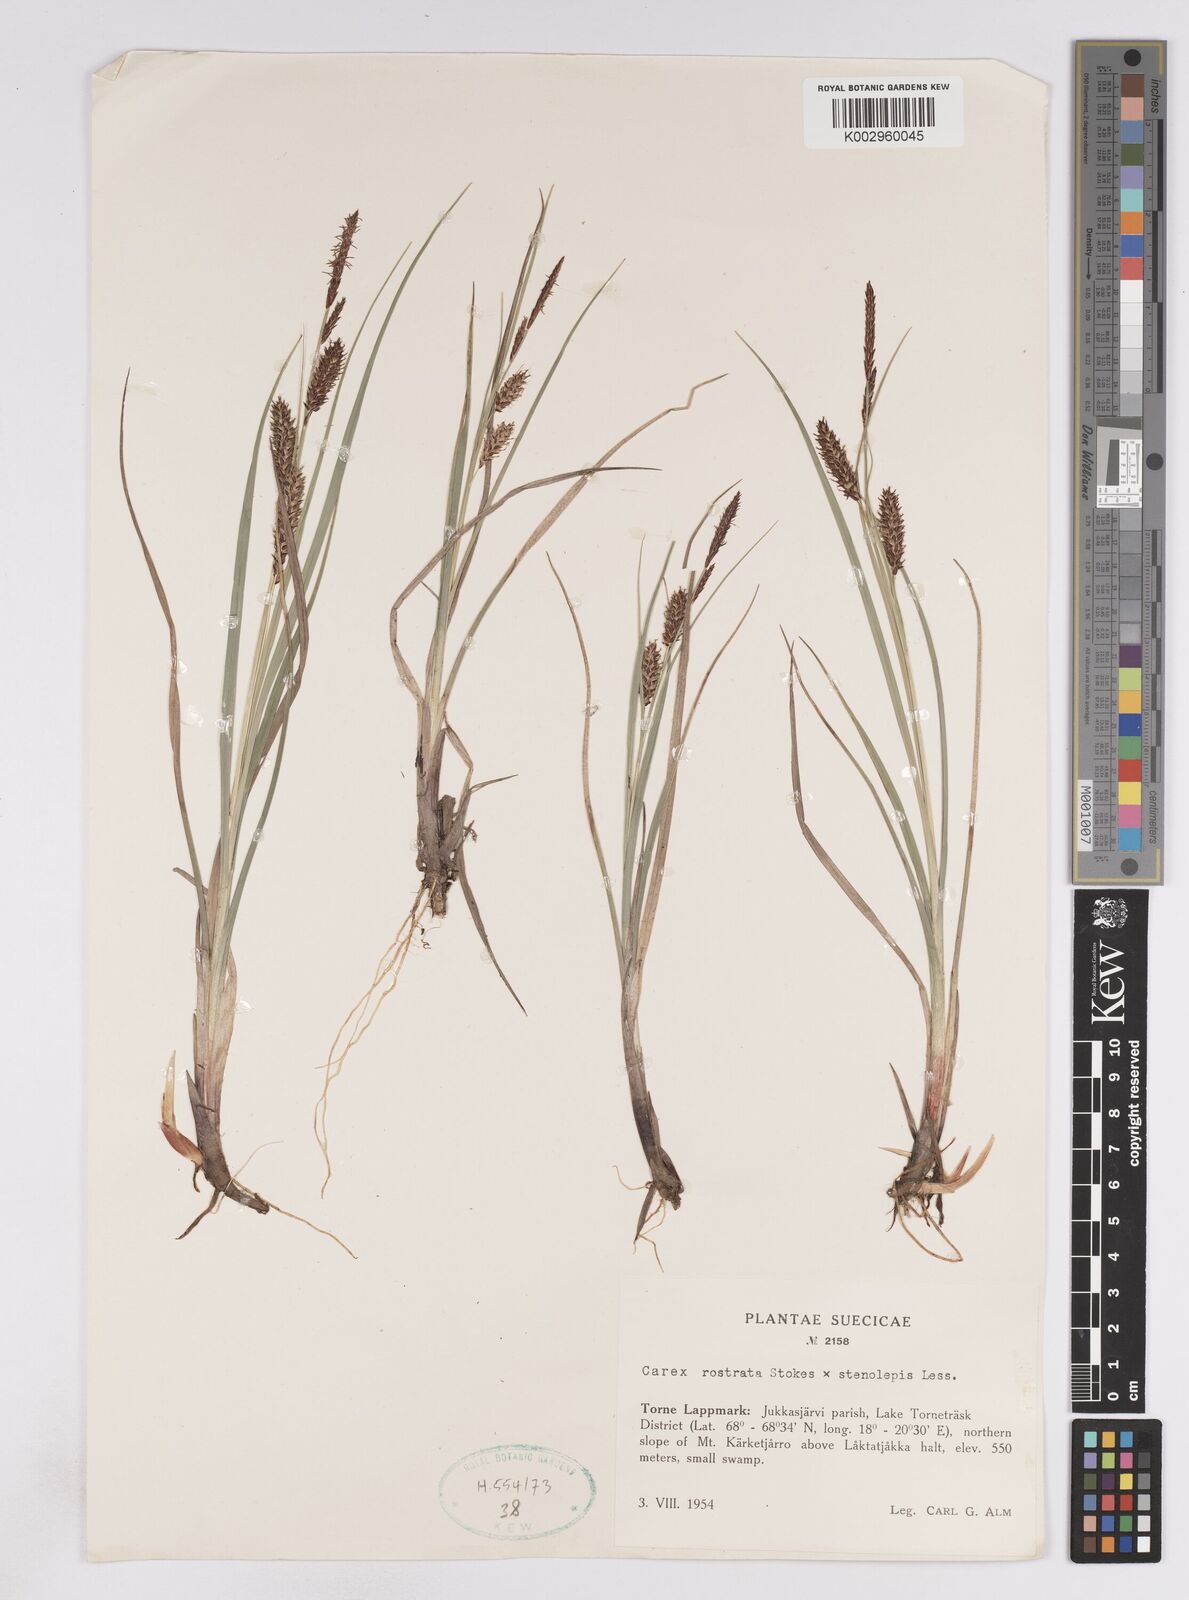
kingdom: Plantae
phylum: Tracheophyta
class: Liliopsida
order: Poales
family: Cyperaceae
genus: Carex
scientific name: Carex
